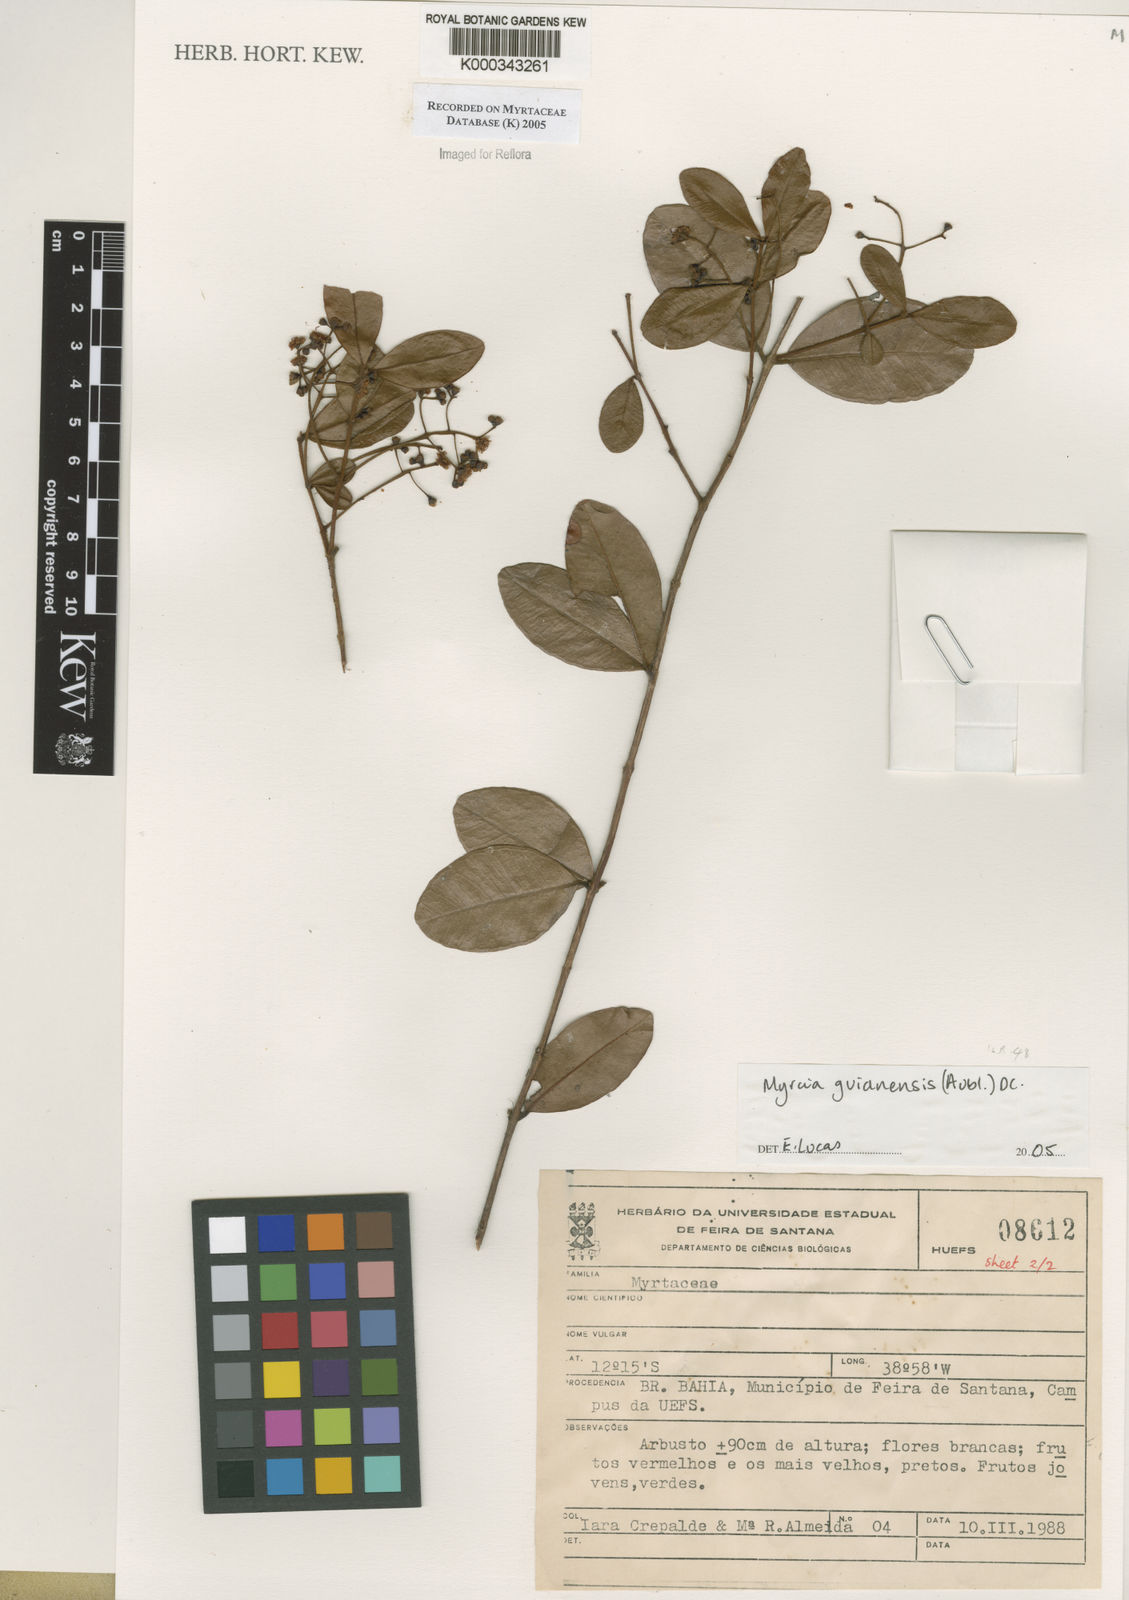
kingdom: Plantae
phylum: Tracheophyta
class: Magnoliopsida
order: Myrtales
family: Myrtaceae
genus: Myrcia
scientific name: Myrcia guianensis
